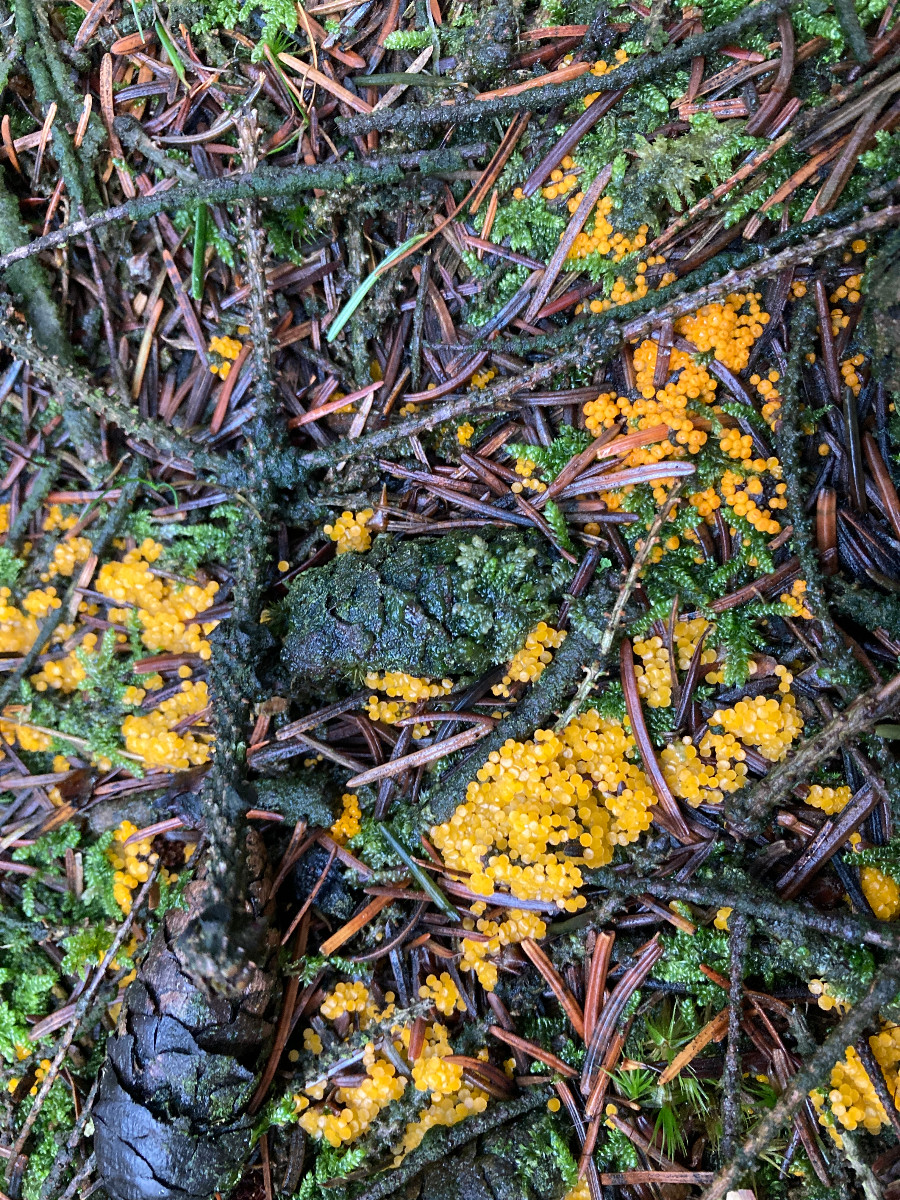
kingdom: Fungi
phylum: Ascomycota
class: Pezizomycetes
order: Pezizales
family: Pyronemataceae
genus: Byssonectria
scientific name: Byssonectria terrestris
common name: hjortebæger
